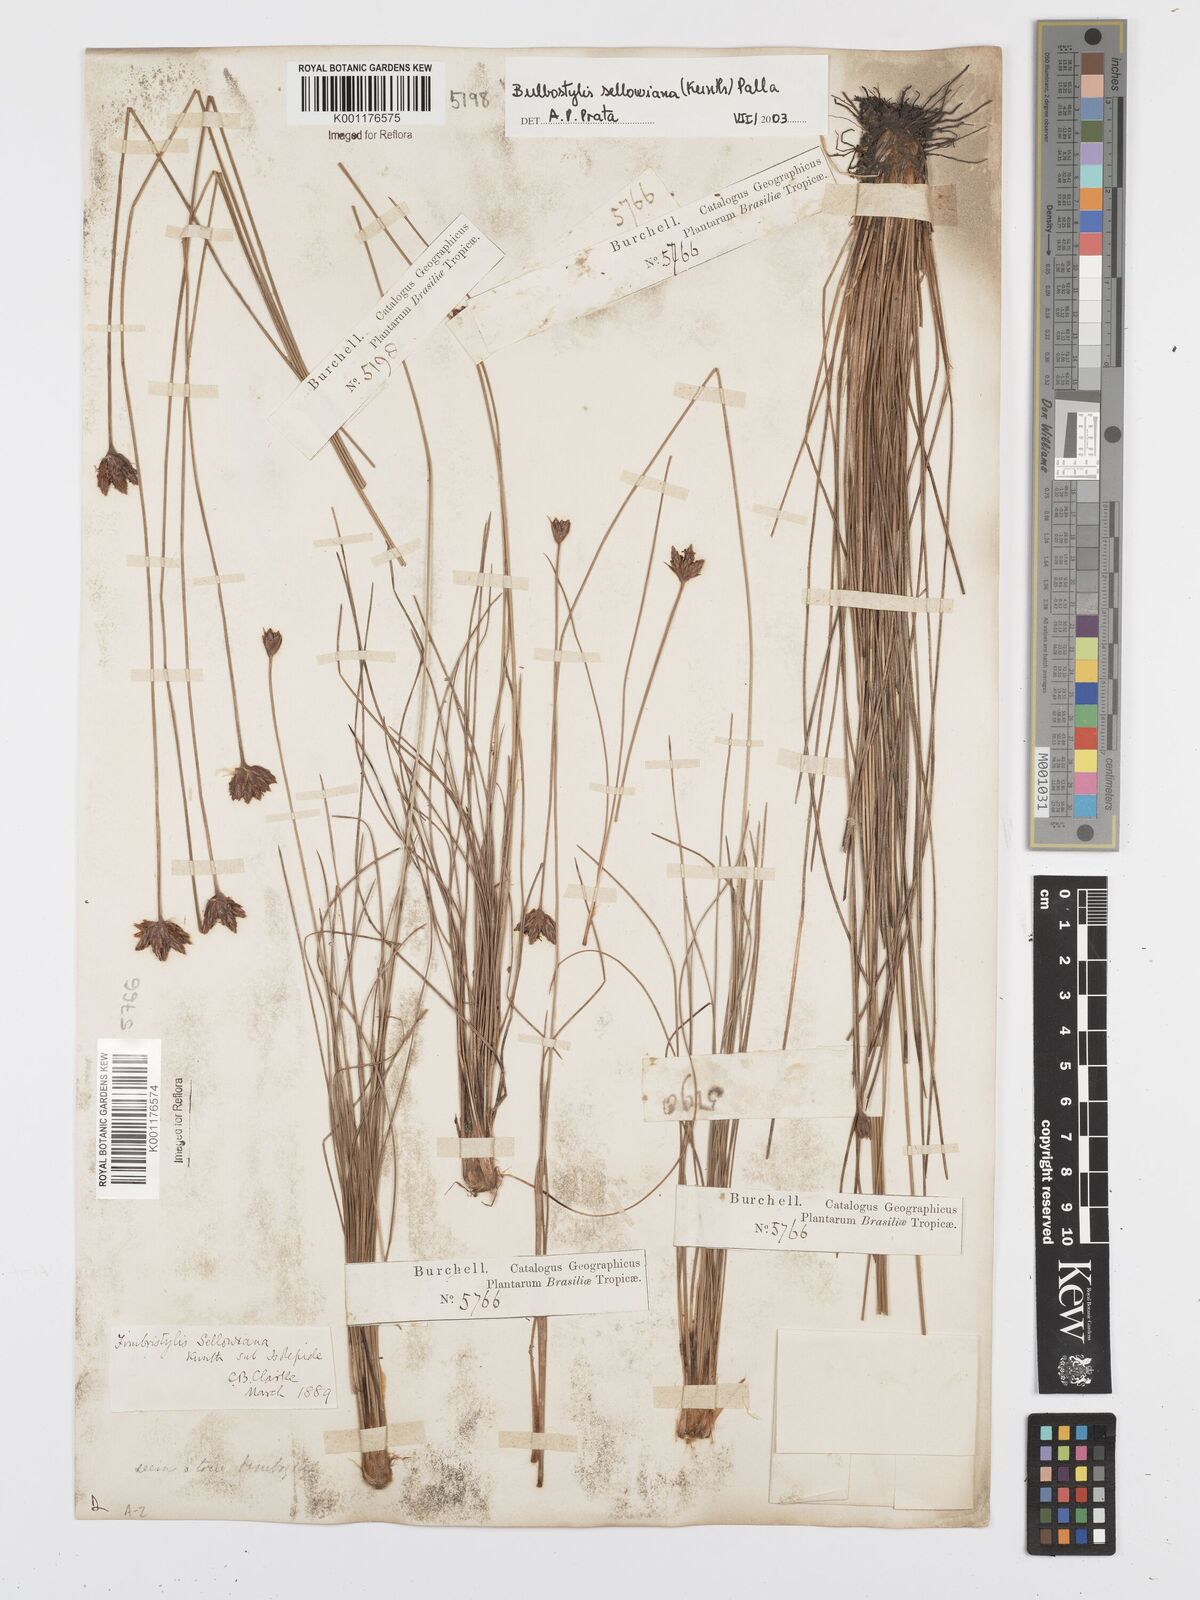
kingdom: Plantae
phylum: Tracheophyta
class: Liliopsida
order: Poales
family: Cyperaceae
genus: Bulbostylis
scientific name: Bulbostylis sellowiana
